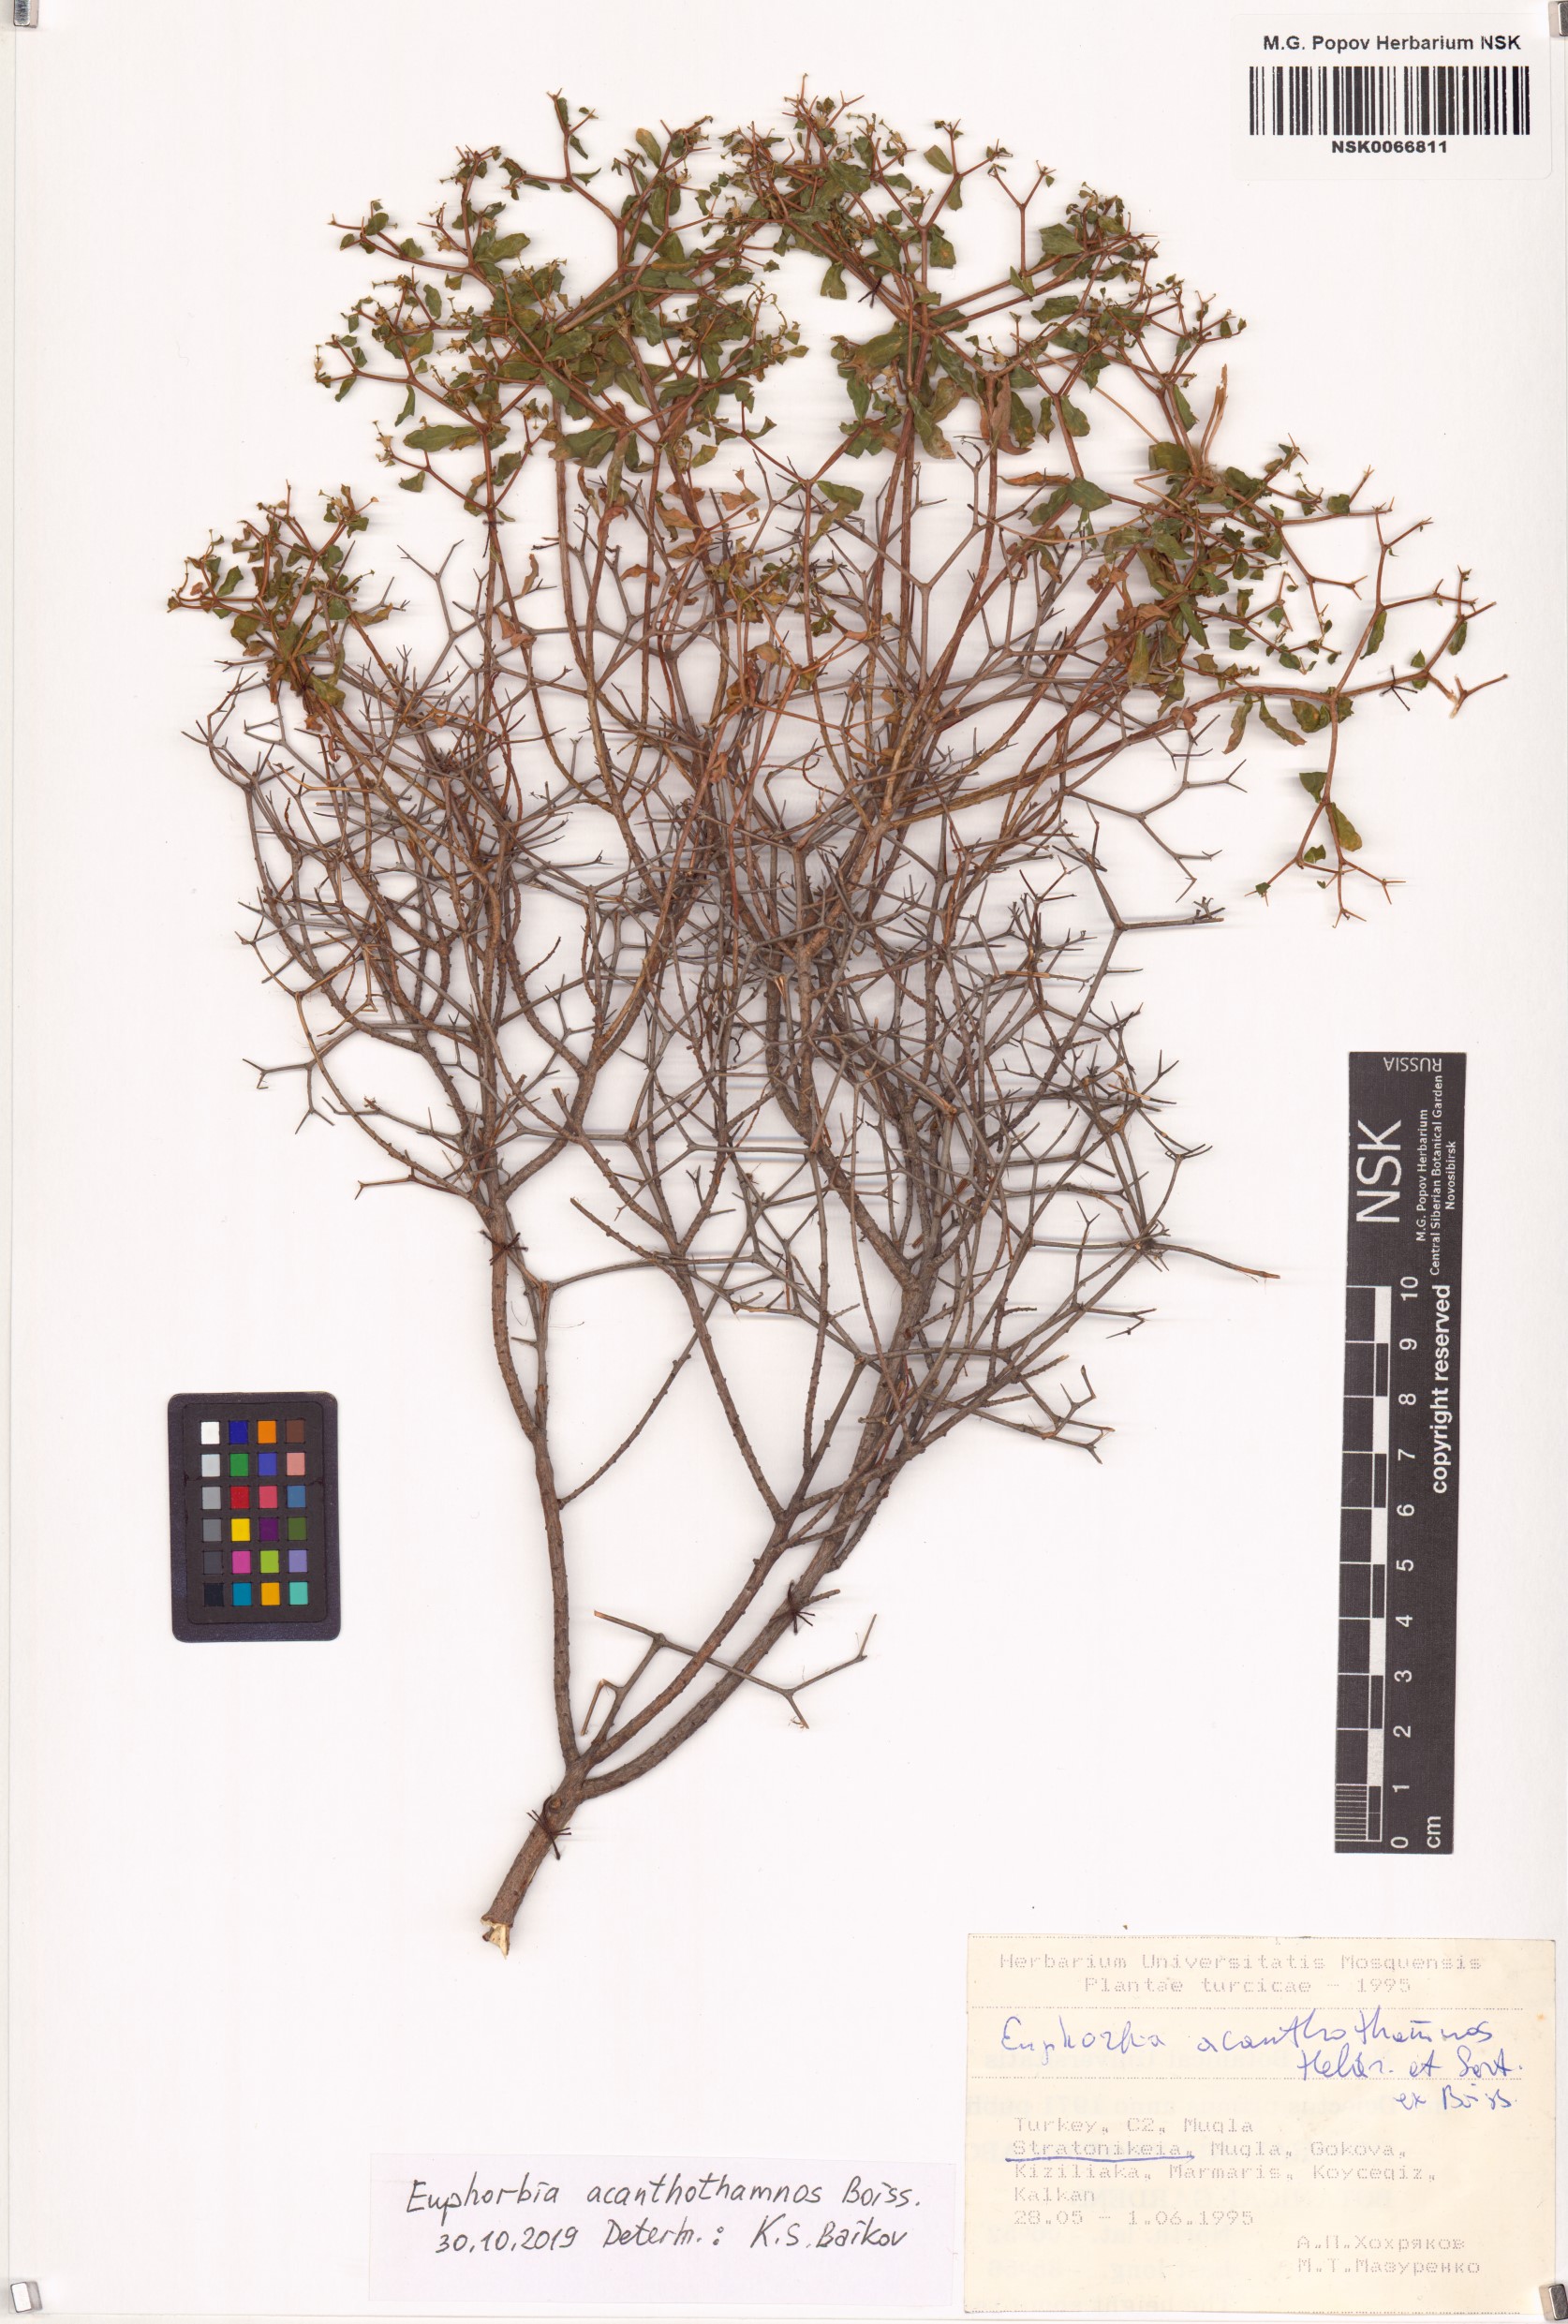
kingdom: Plantae
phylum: Tracheophyta
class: Magnoliopsida
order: Malpighiales
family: Euphorbiaceae
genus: Euphorbia
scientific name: Euphorbia acanthothamnos
